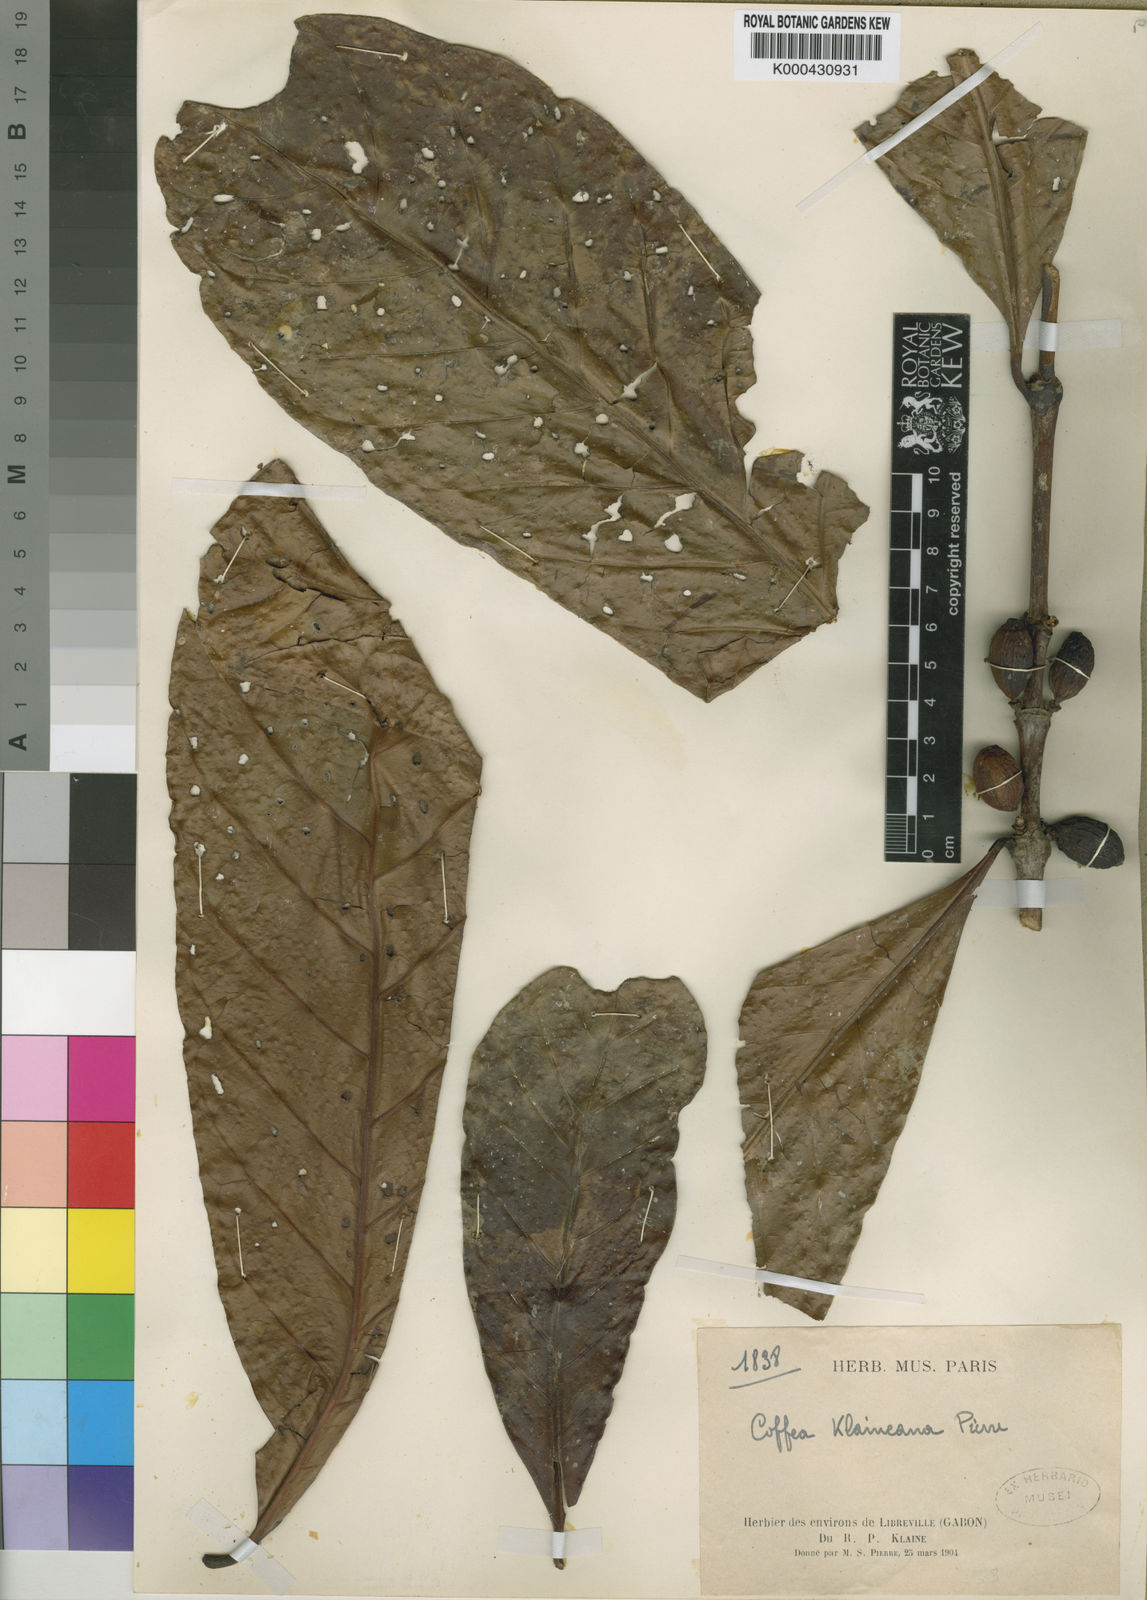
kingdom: Plantae
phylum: Tracheophyta
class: Magnoliopsida
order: Gentianales
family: Rubiaceae
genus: Coffea
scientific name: Coffea
